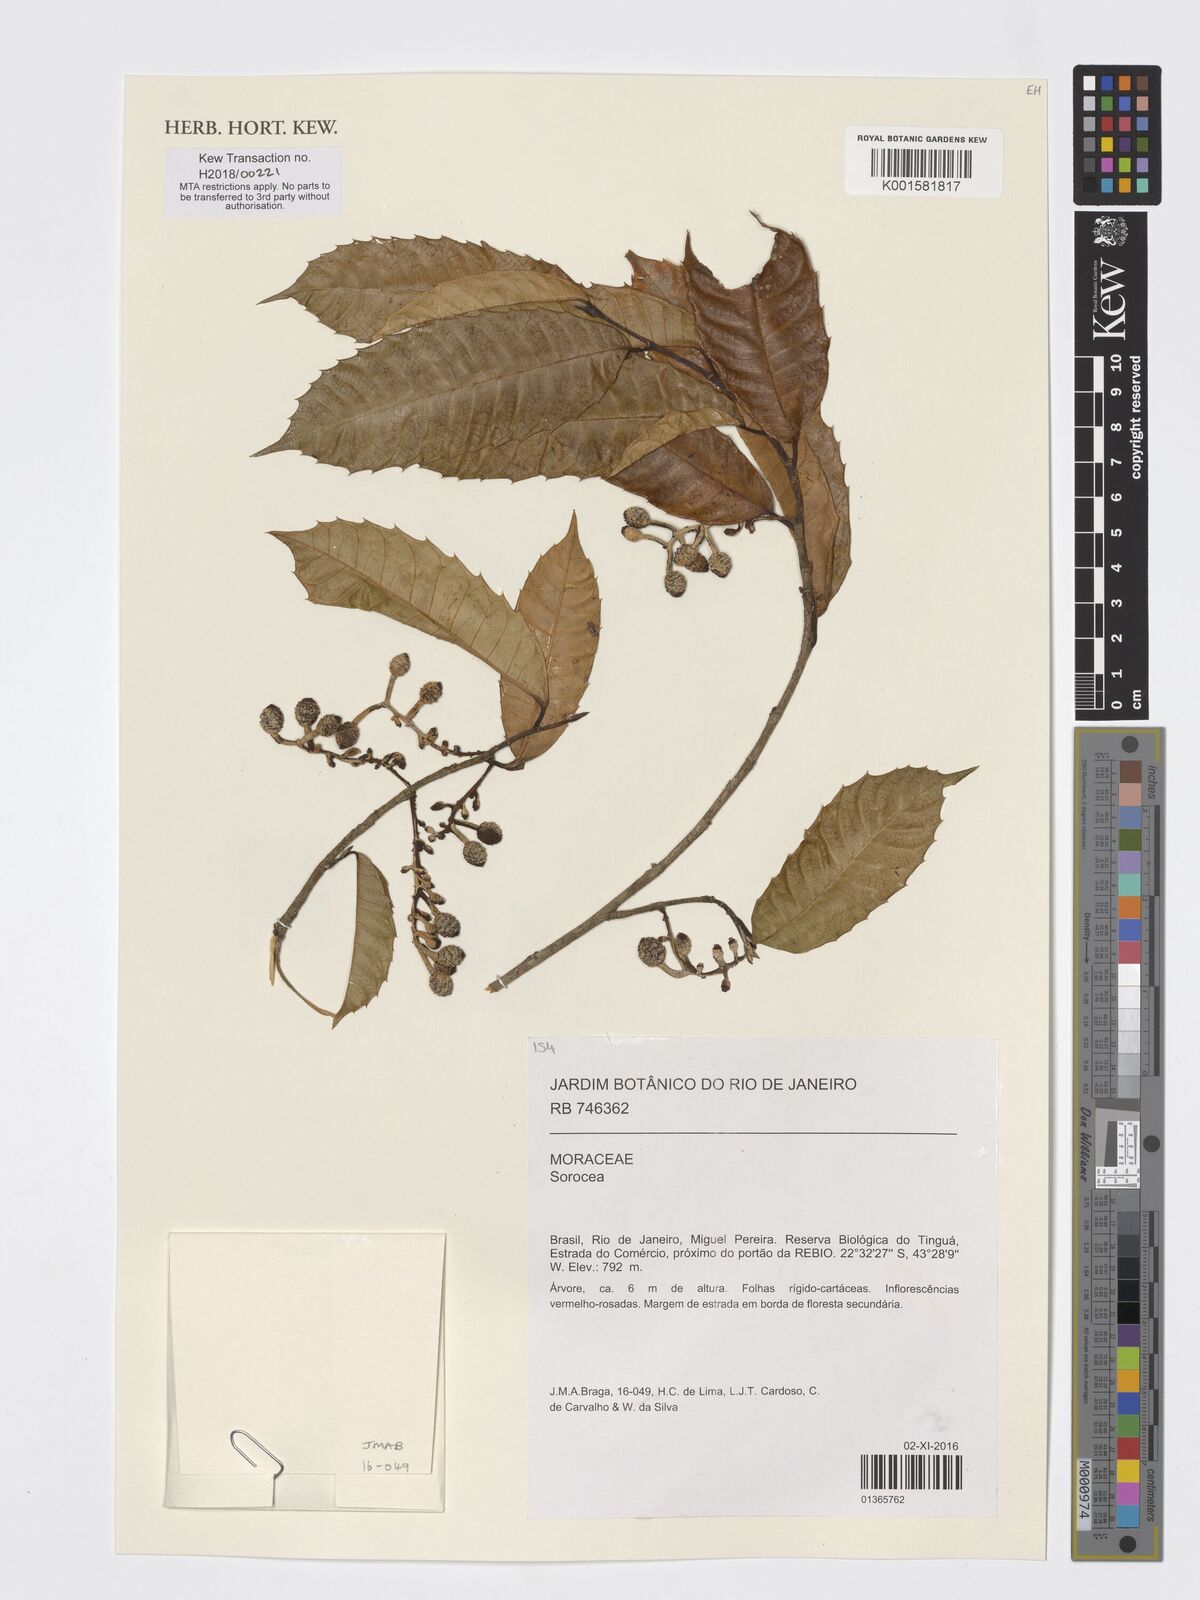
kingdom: Plantae
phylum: Tracheophyta
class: Magnoliopsida
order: Rosales
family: Moraceae
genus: Sorocea
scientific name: Sorocea
